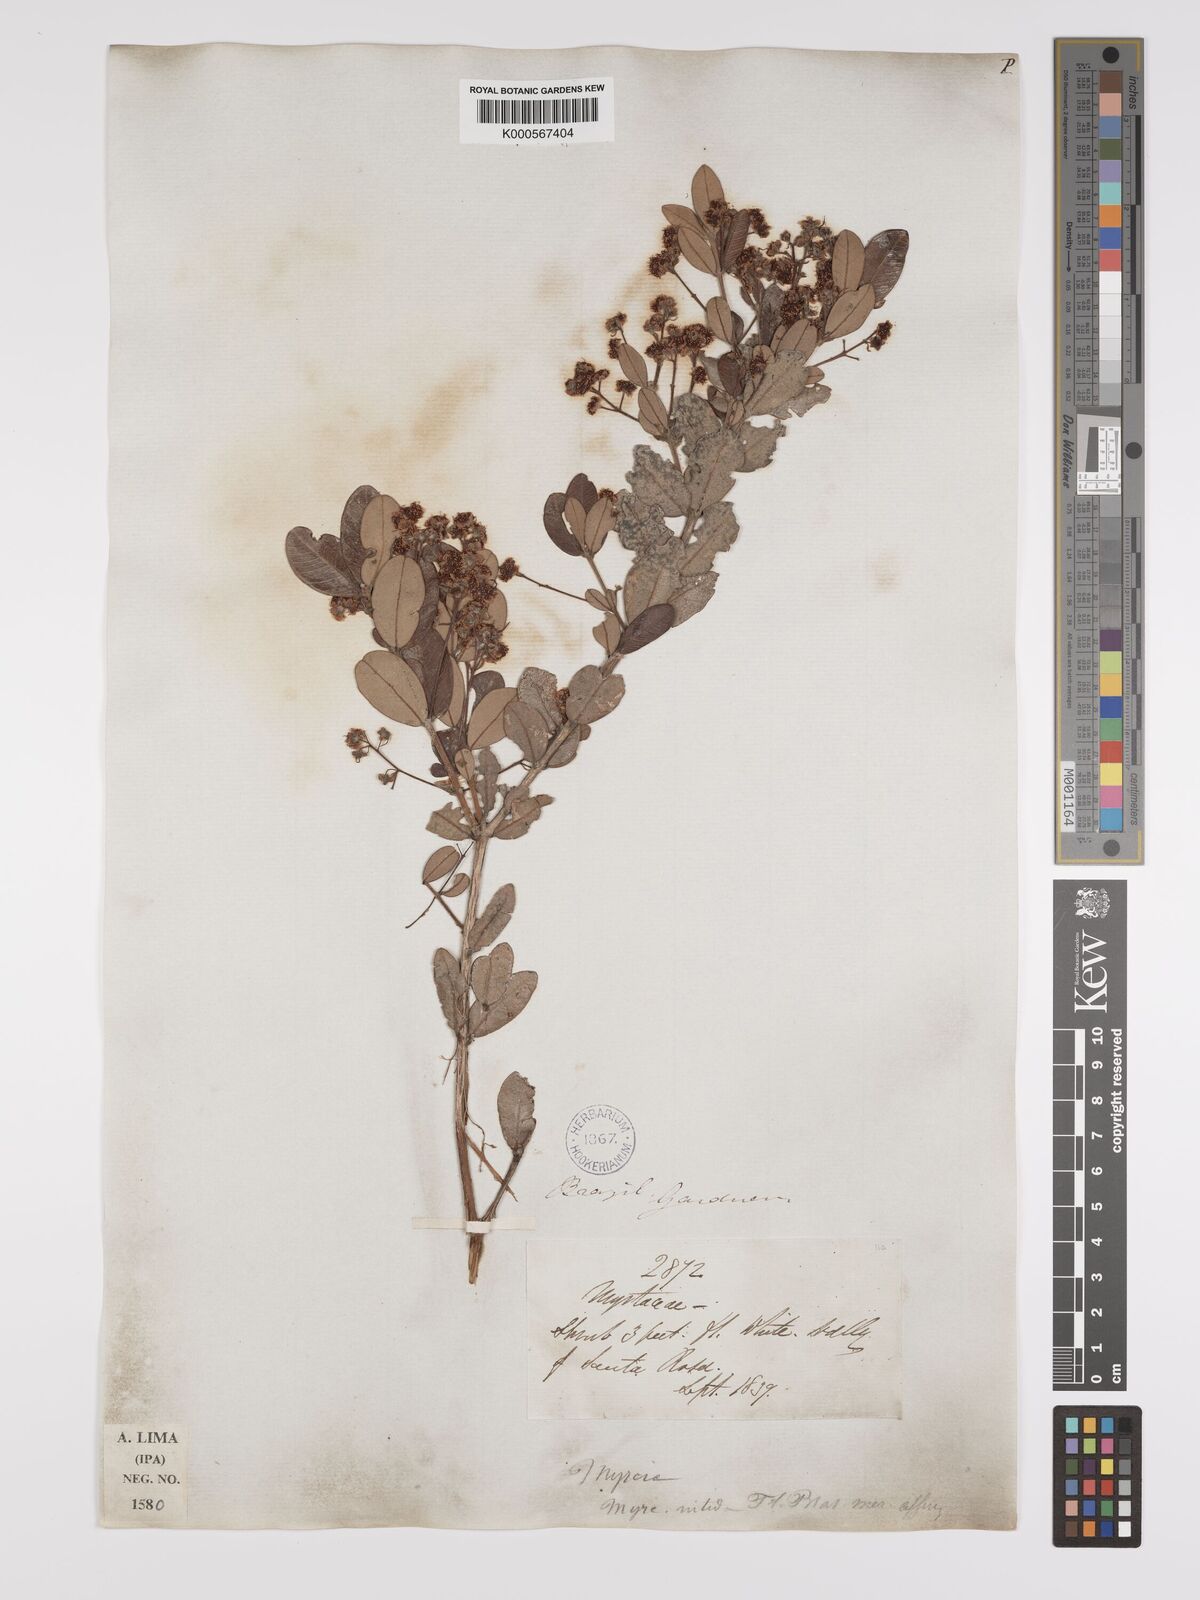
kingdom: Plantae
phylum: Tracheophyta
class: Magnoliopsida
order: Myrtales
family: Myrtaceae
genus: Myrcia
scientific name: Myrcia nitida
